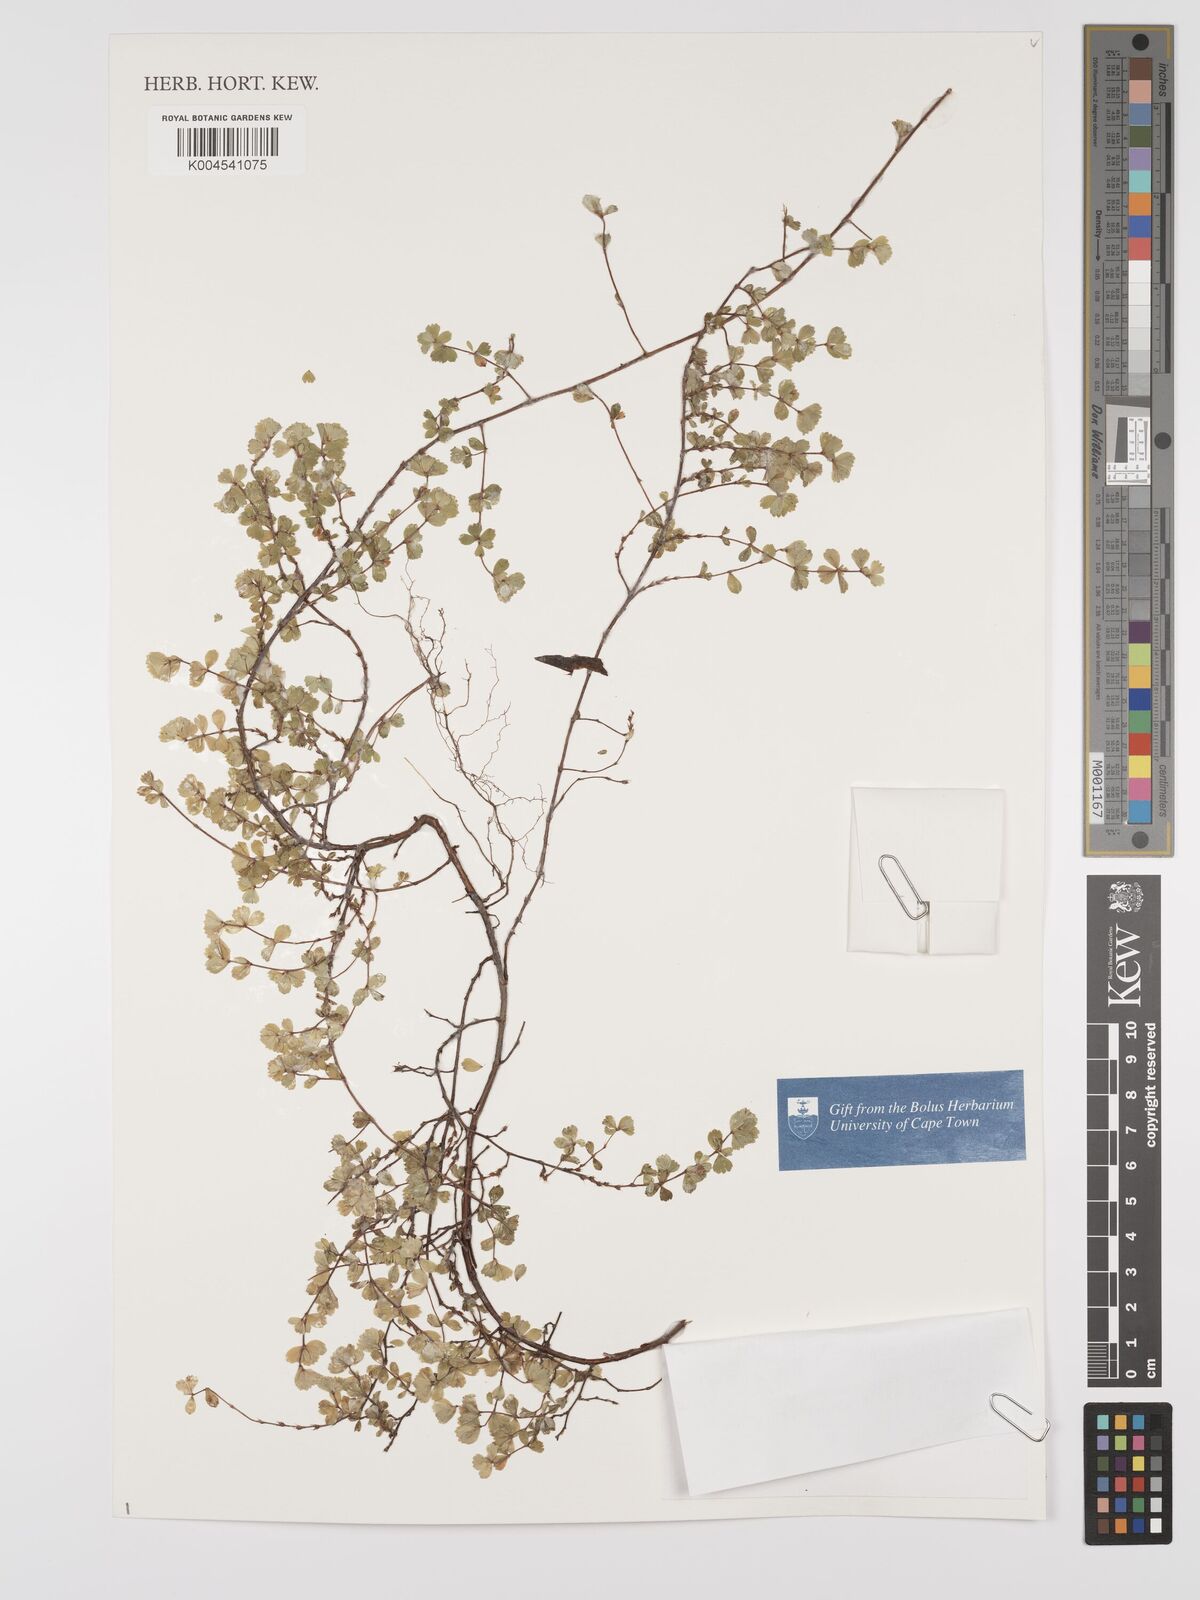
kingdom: Plantae
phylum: Tracheophyta
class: Magnoliopsida
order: Rosales
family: Rosaceae
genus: Cliffortia
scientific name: Cliffortia
